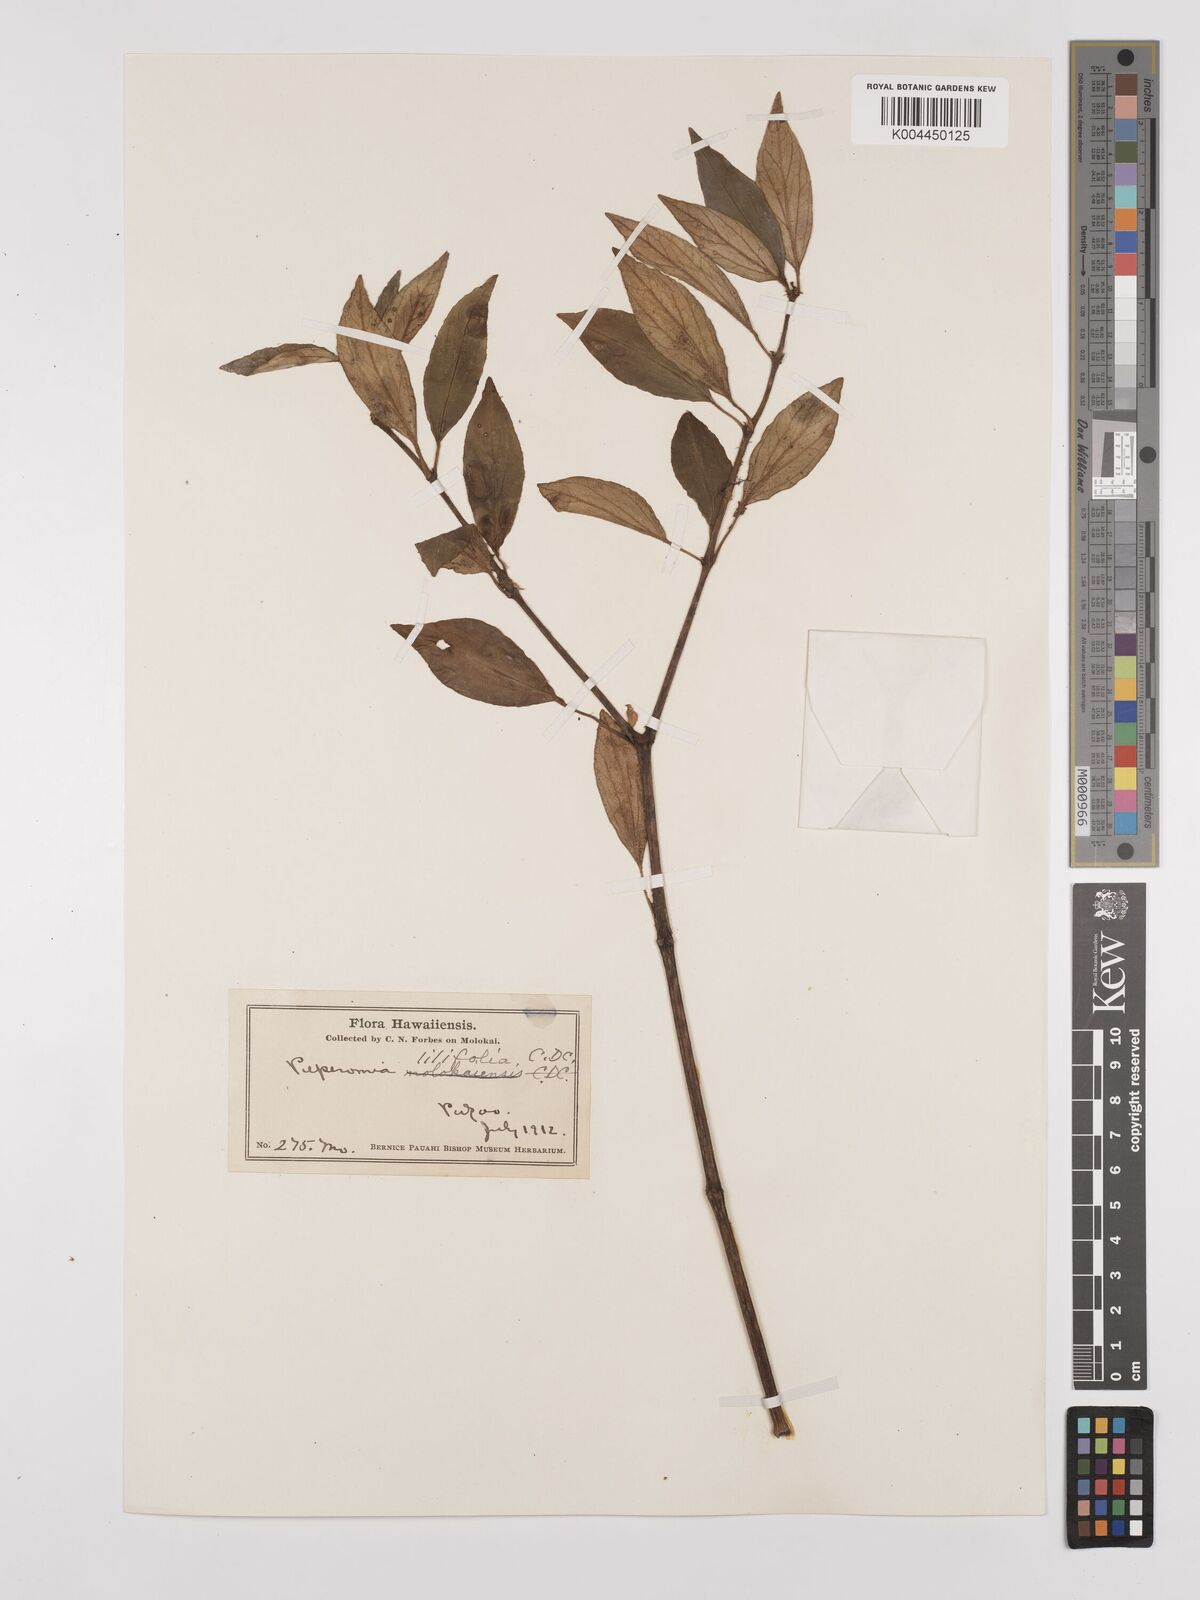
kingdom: Plantae
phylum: Tracheophyta
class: Magnoliopsida
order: Piperales
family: Piperaceae
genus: Peperomia
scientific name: Peperomia macraeana
